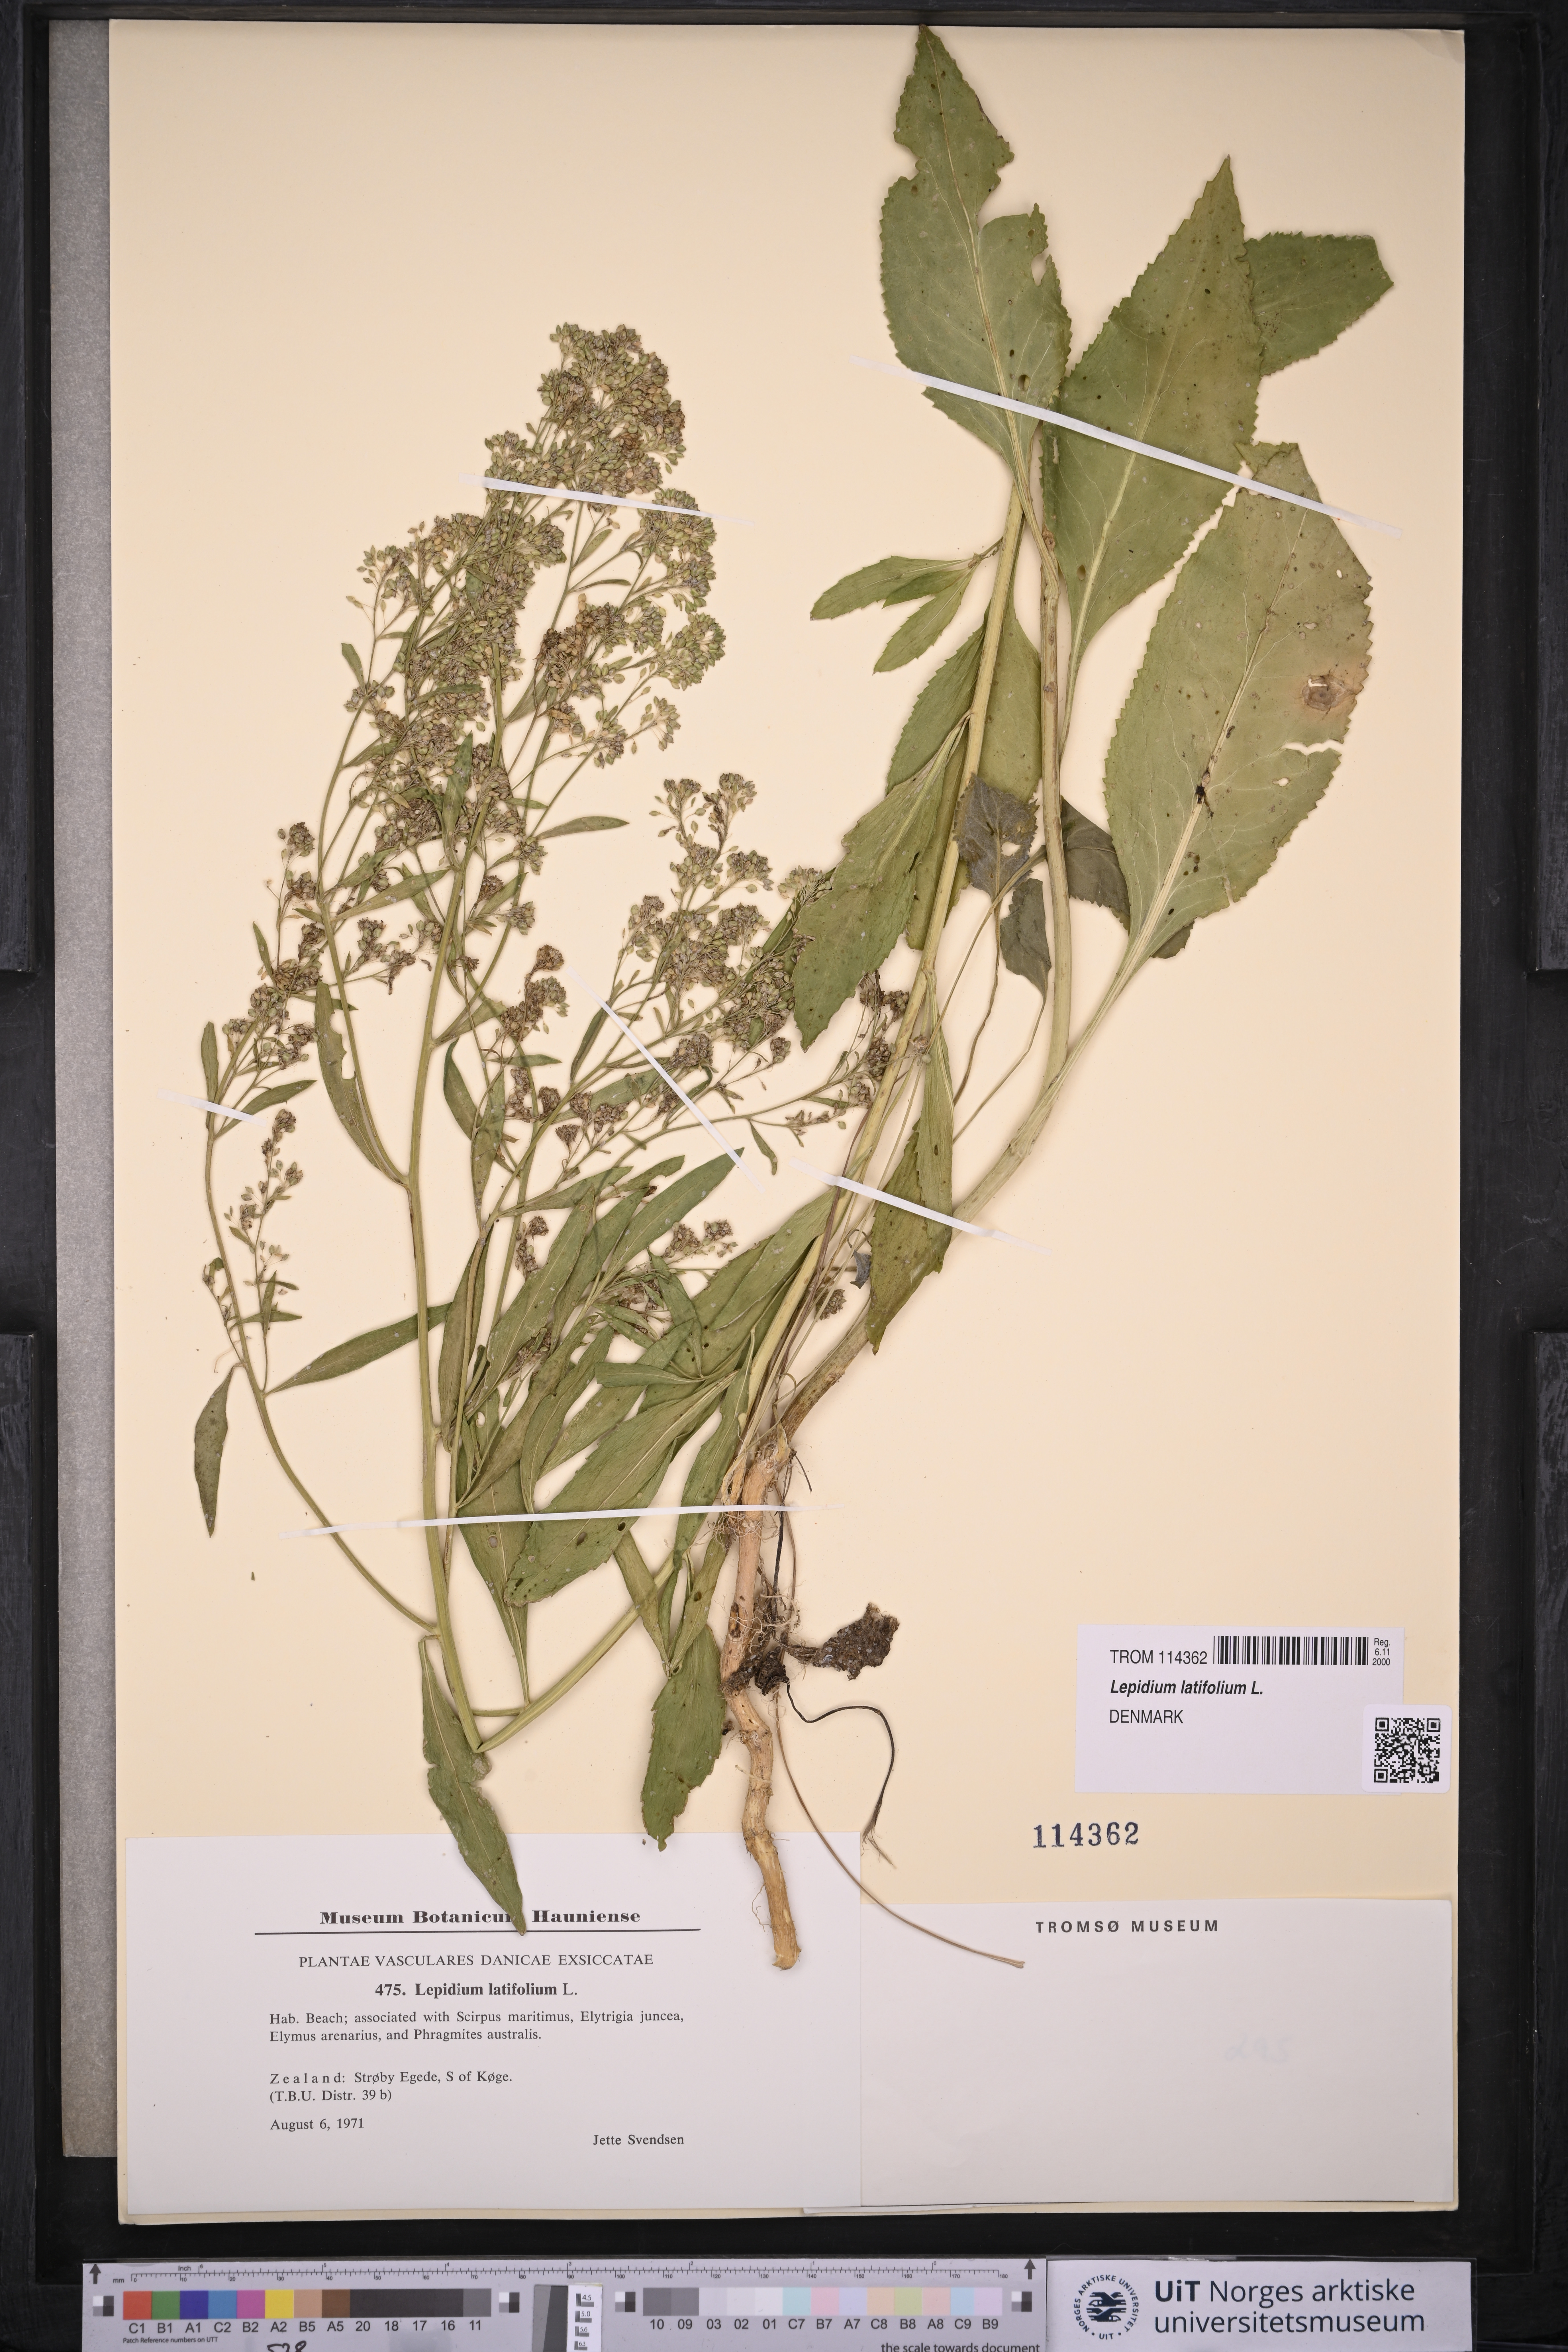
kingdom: Plantae
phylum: Tracheophyta
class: Magnoliopsida
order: Brassicales
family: Brassicaceae
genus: Lepidium
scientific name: Lepidium latifolium
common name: Dittander
